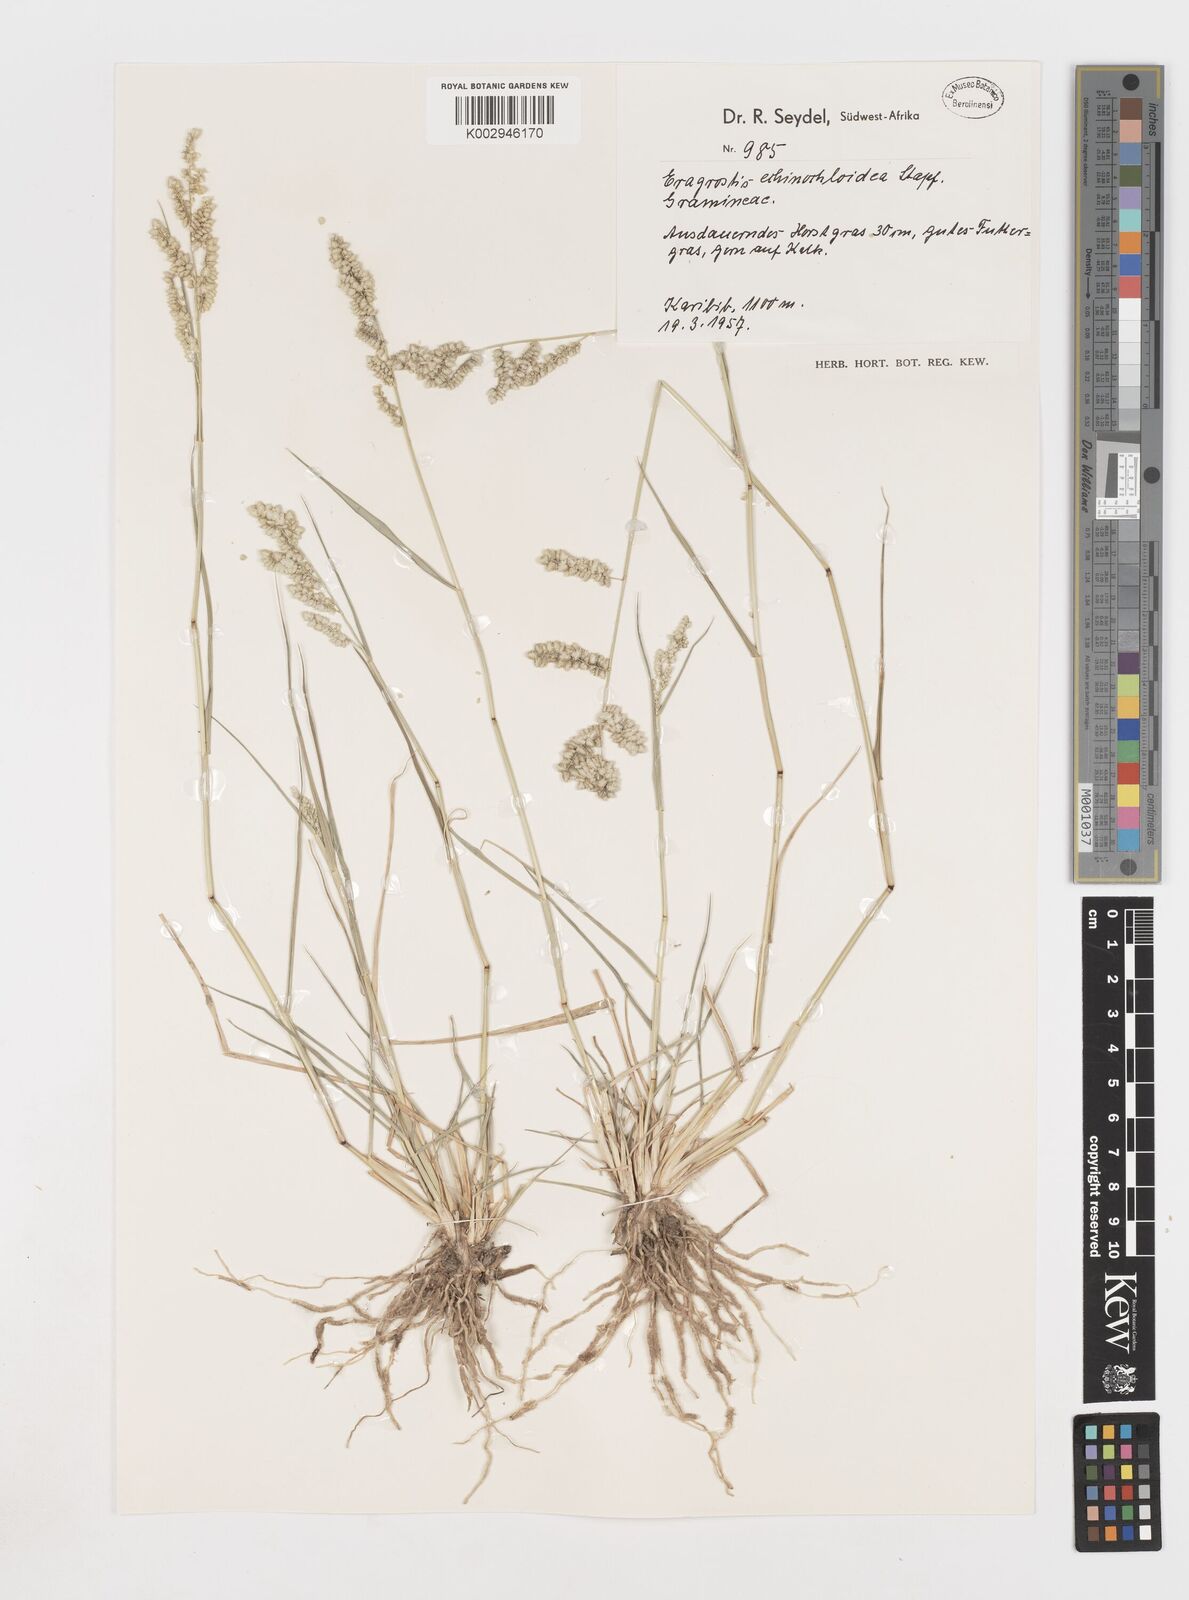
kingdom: Plantae
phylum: Tracheophyta
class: Liliopsida
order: Poales
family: Poaceae
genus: Eragrostis
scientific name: Eragrostis echinochloidea
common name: African lovegrass
